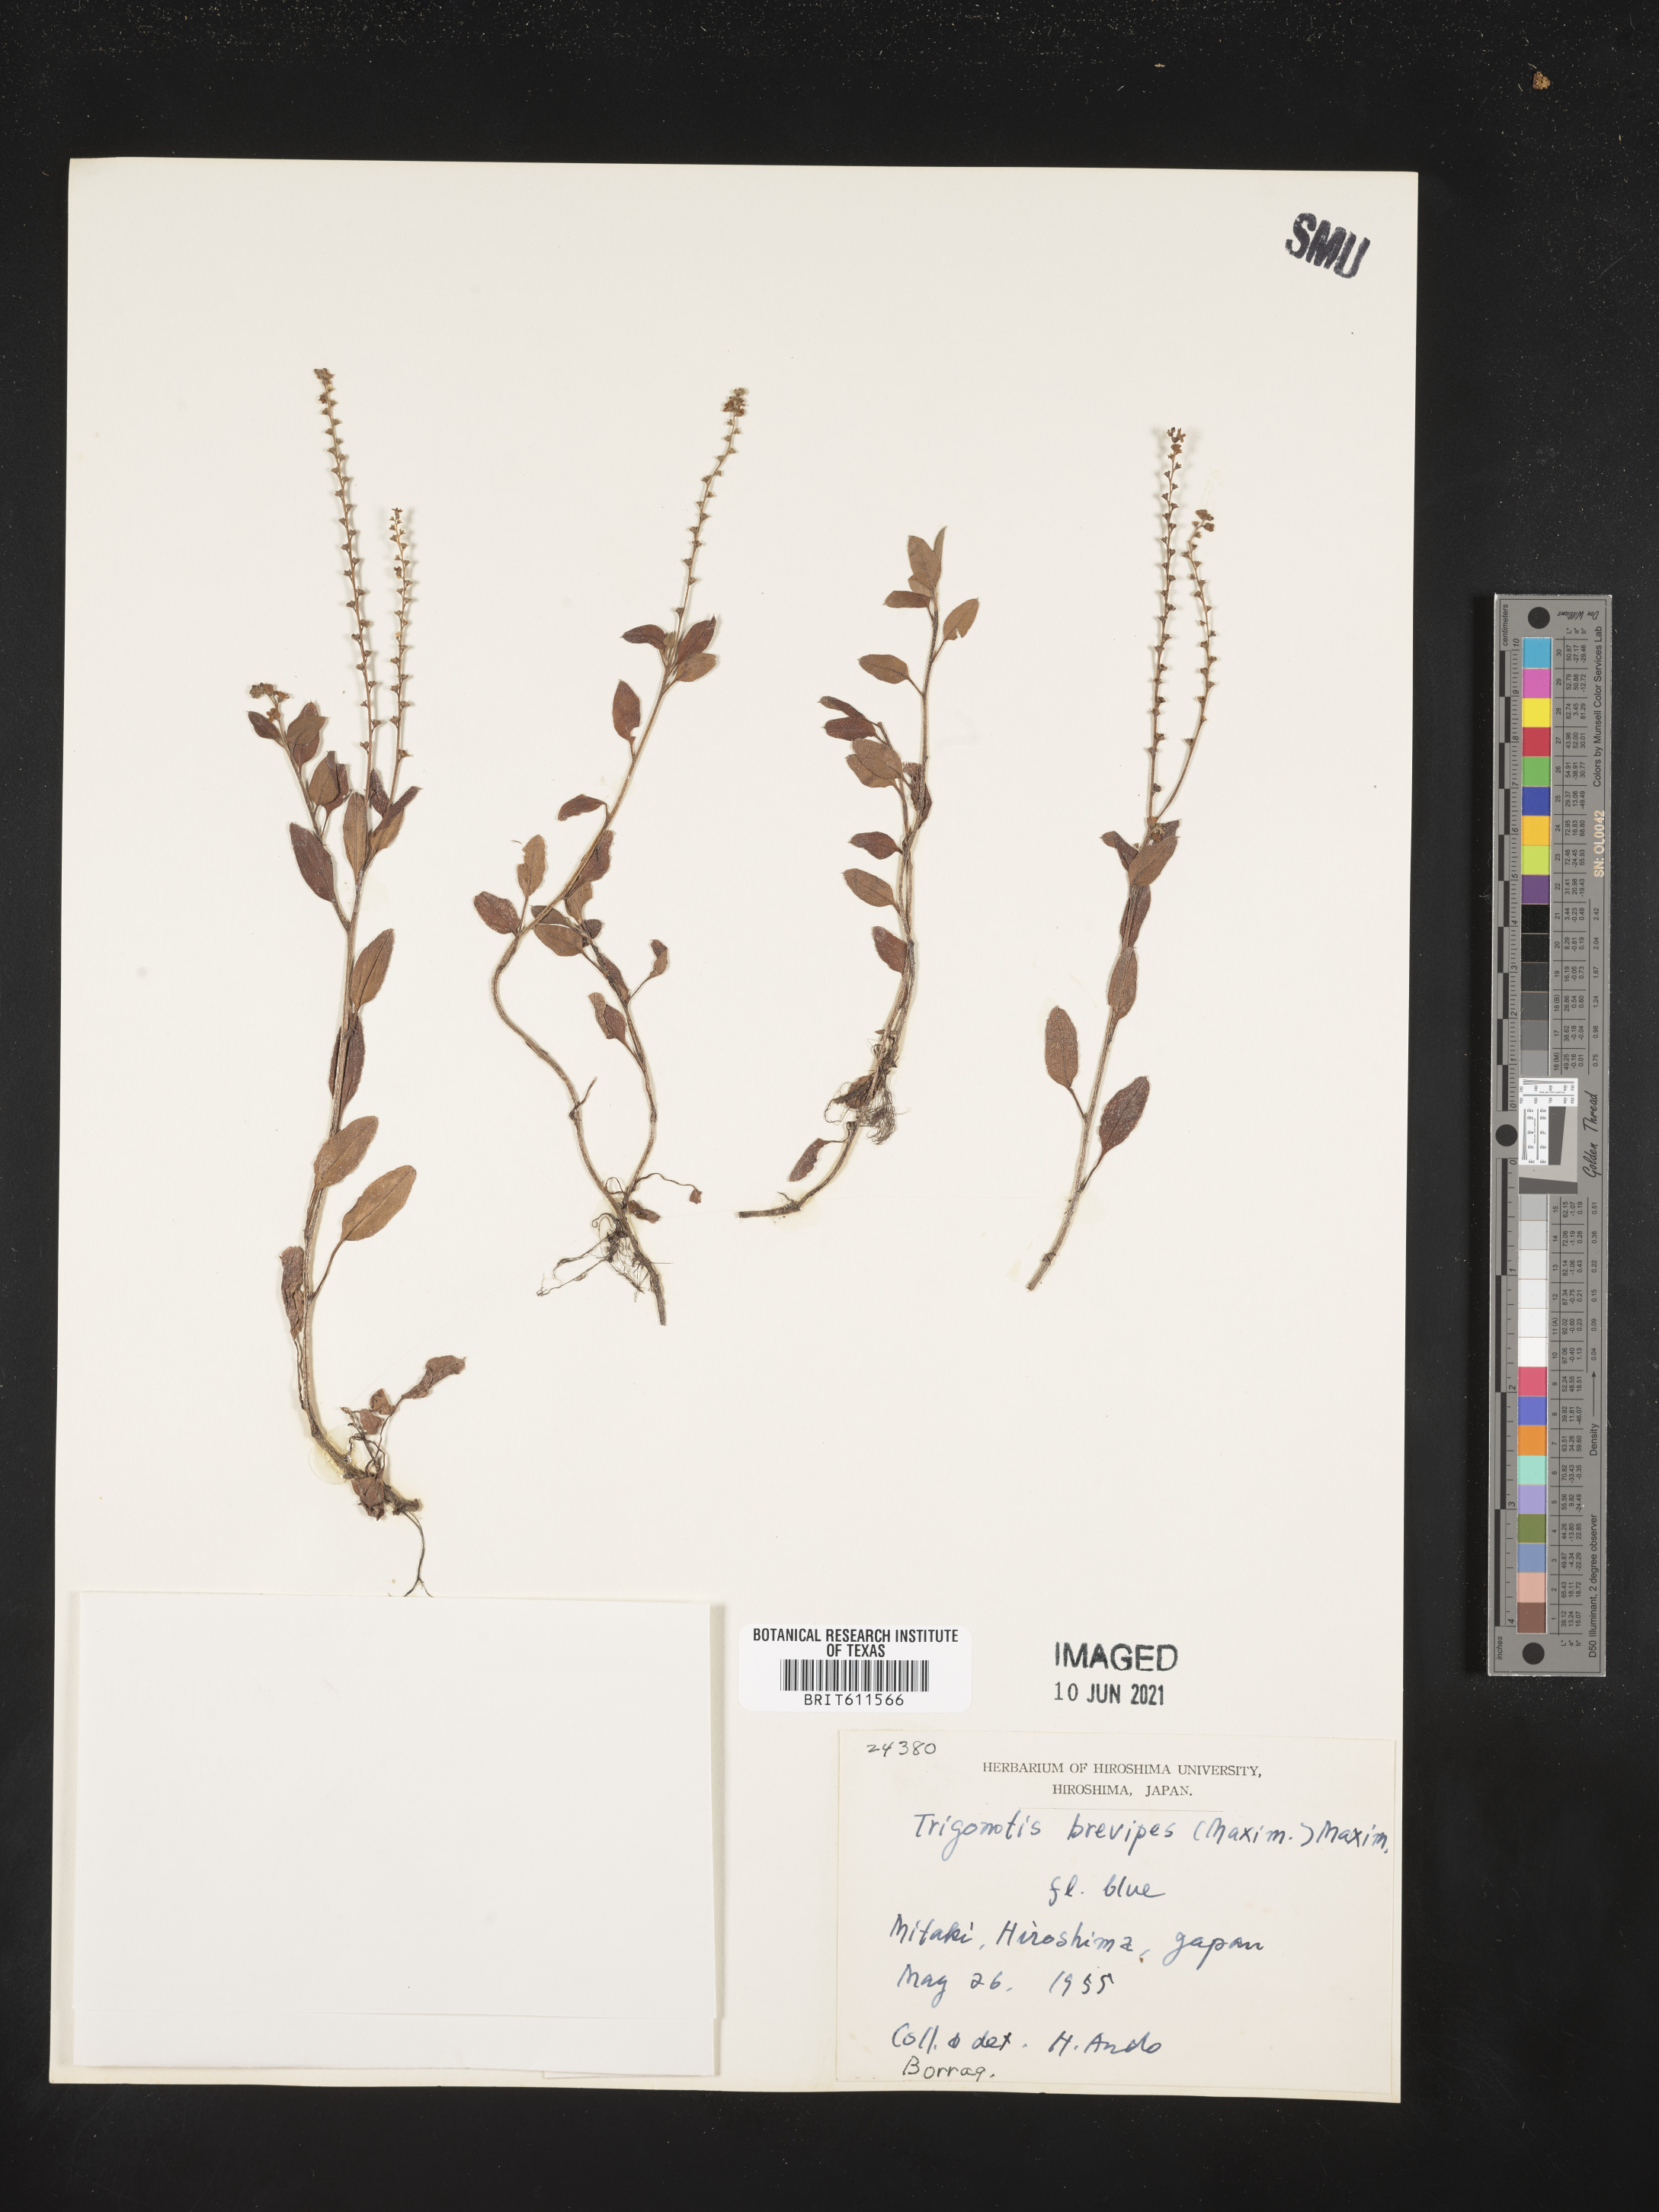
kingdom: Plantae
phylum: Tracheophyta
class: Magnoliopsida
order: Boraginales
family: Boraginaceae
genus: Trigonotis
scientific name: Trigonotis brevipes
